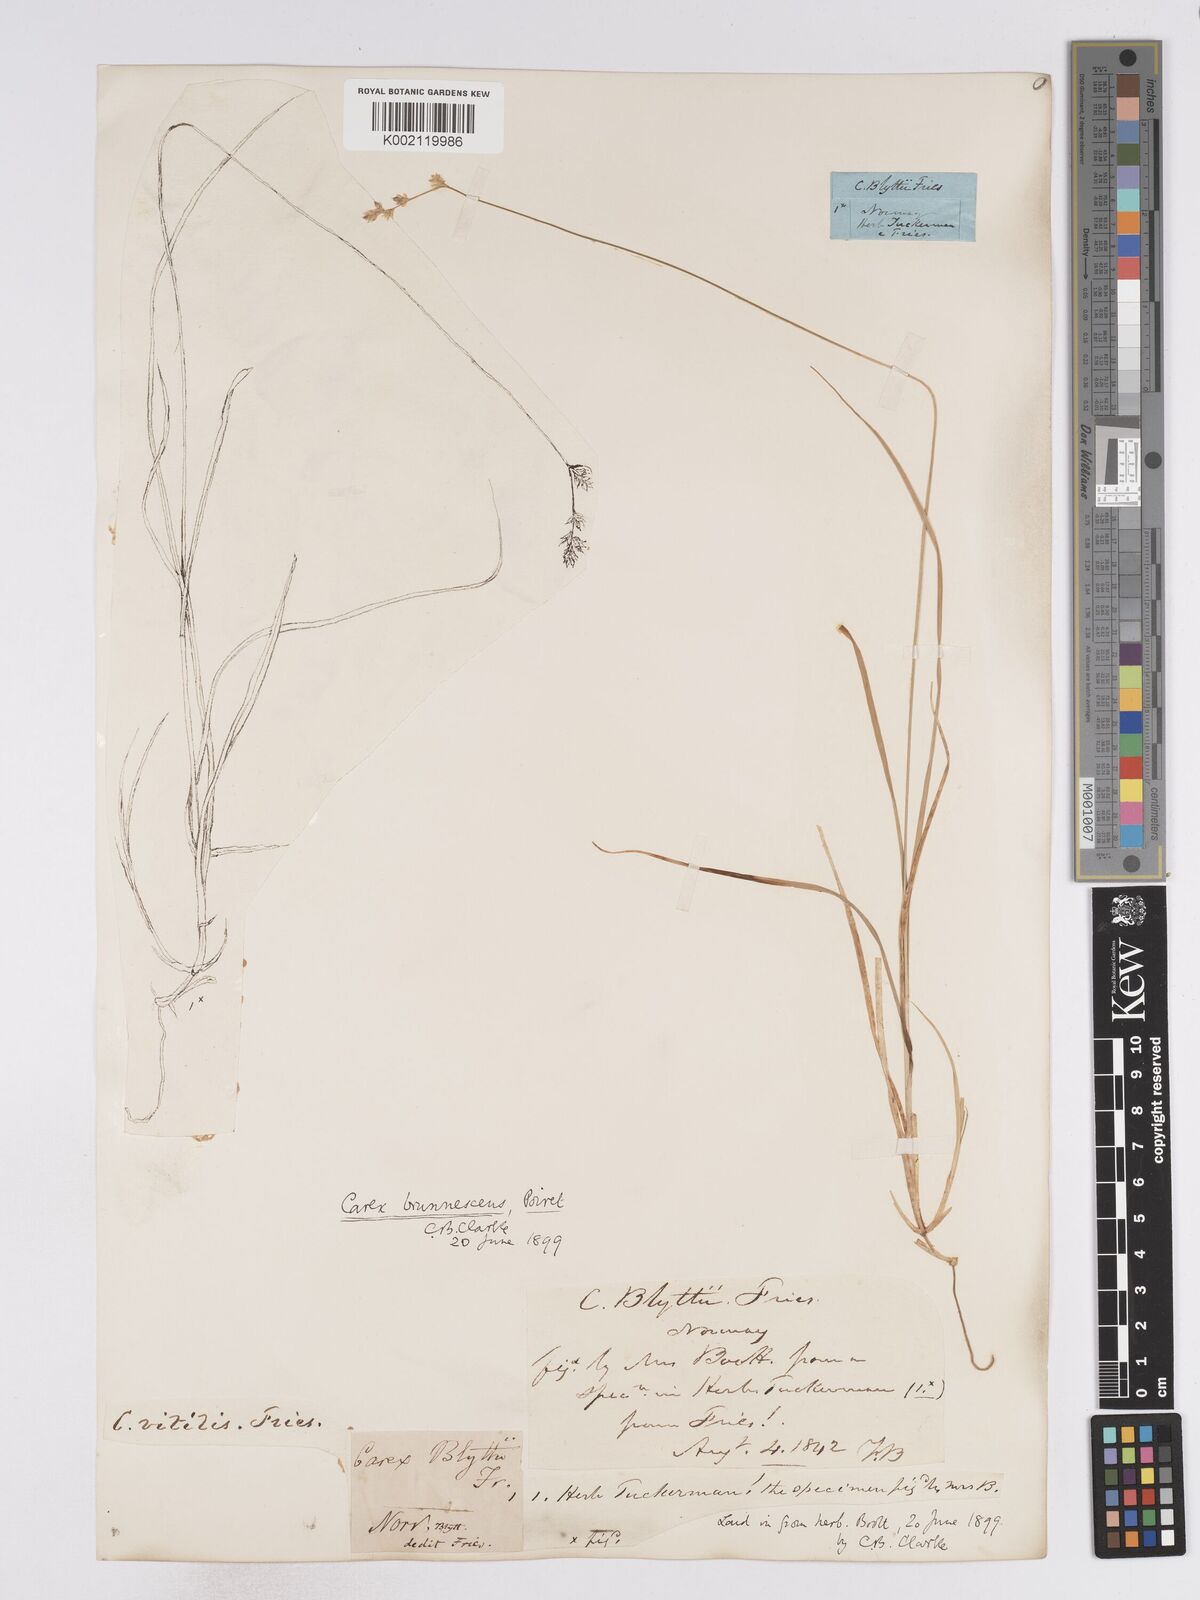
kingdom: Plantae
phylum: Tracheophyta
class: Liliopsida
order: Poales
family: Cyperaceae
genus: Carex
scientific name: Carex brunnescens
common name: Brown sedge
